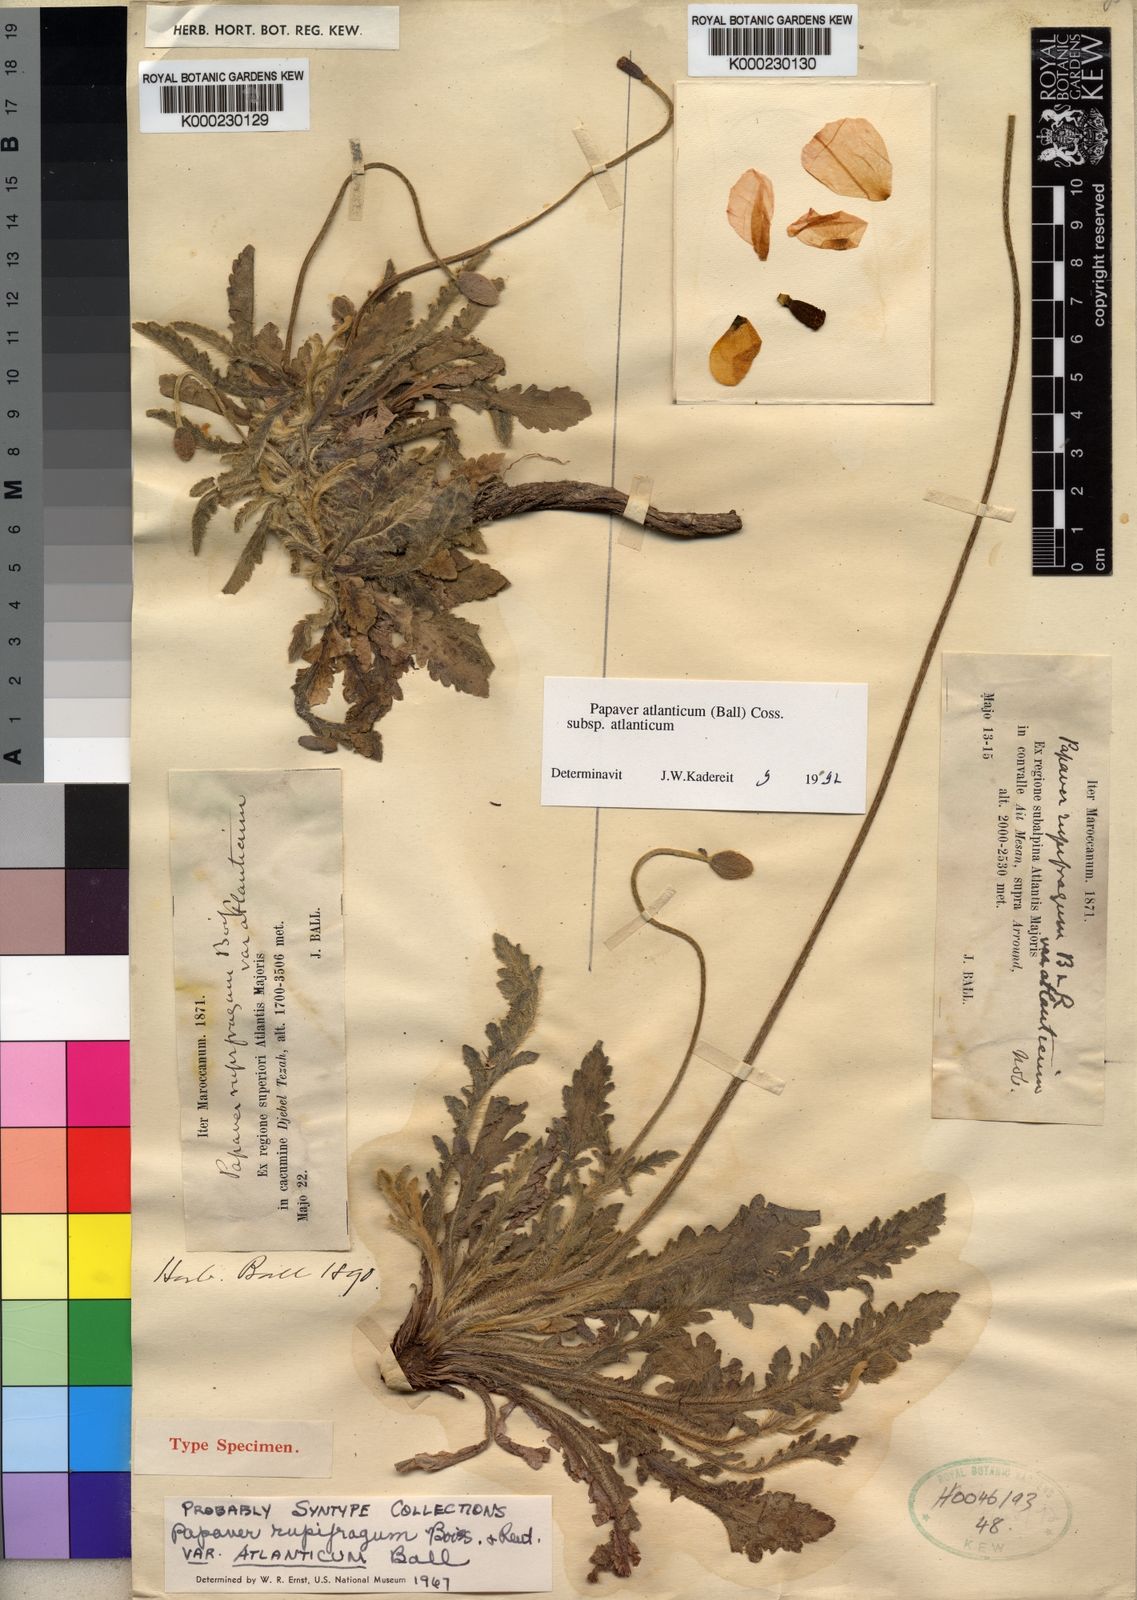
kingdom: Plantae
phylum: Tracheophyta
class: Magnoliopsida
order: Ranunculales
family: Papaveraceae
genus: Papaver
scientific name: Papaver rupifragum
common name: Spanish poppy
